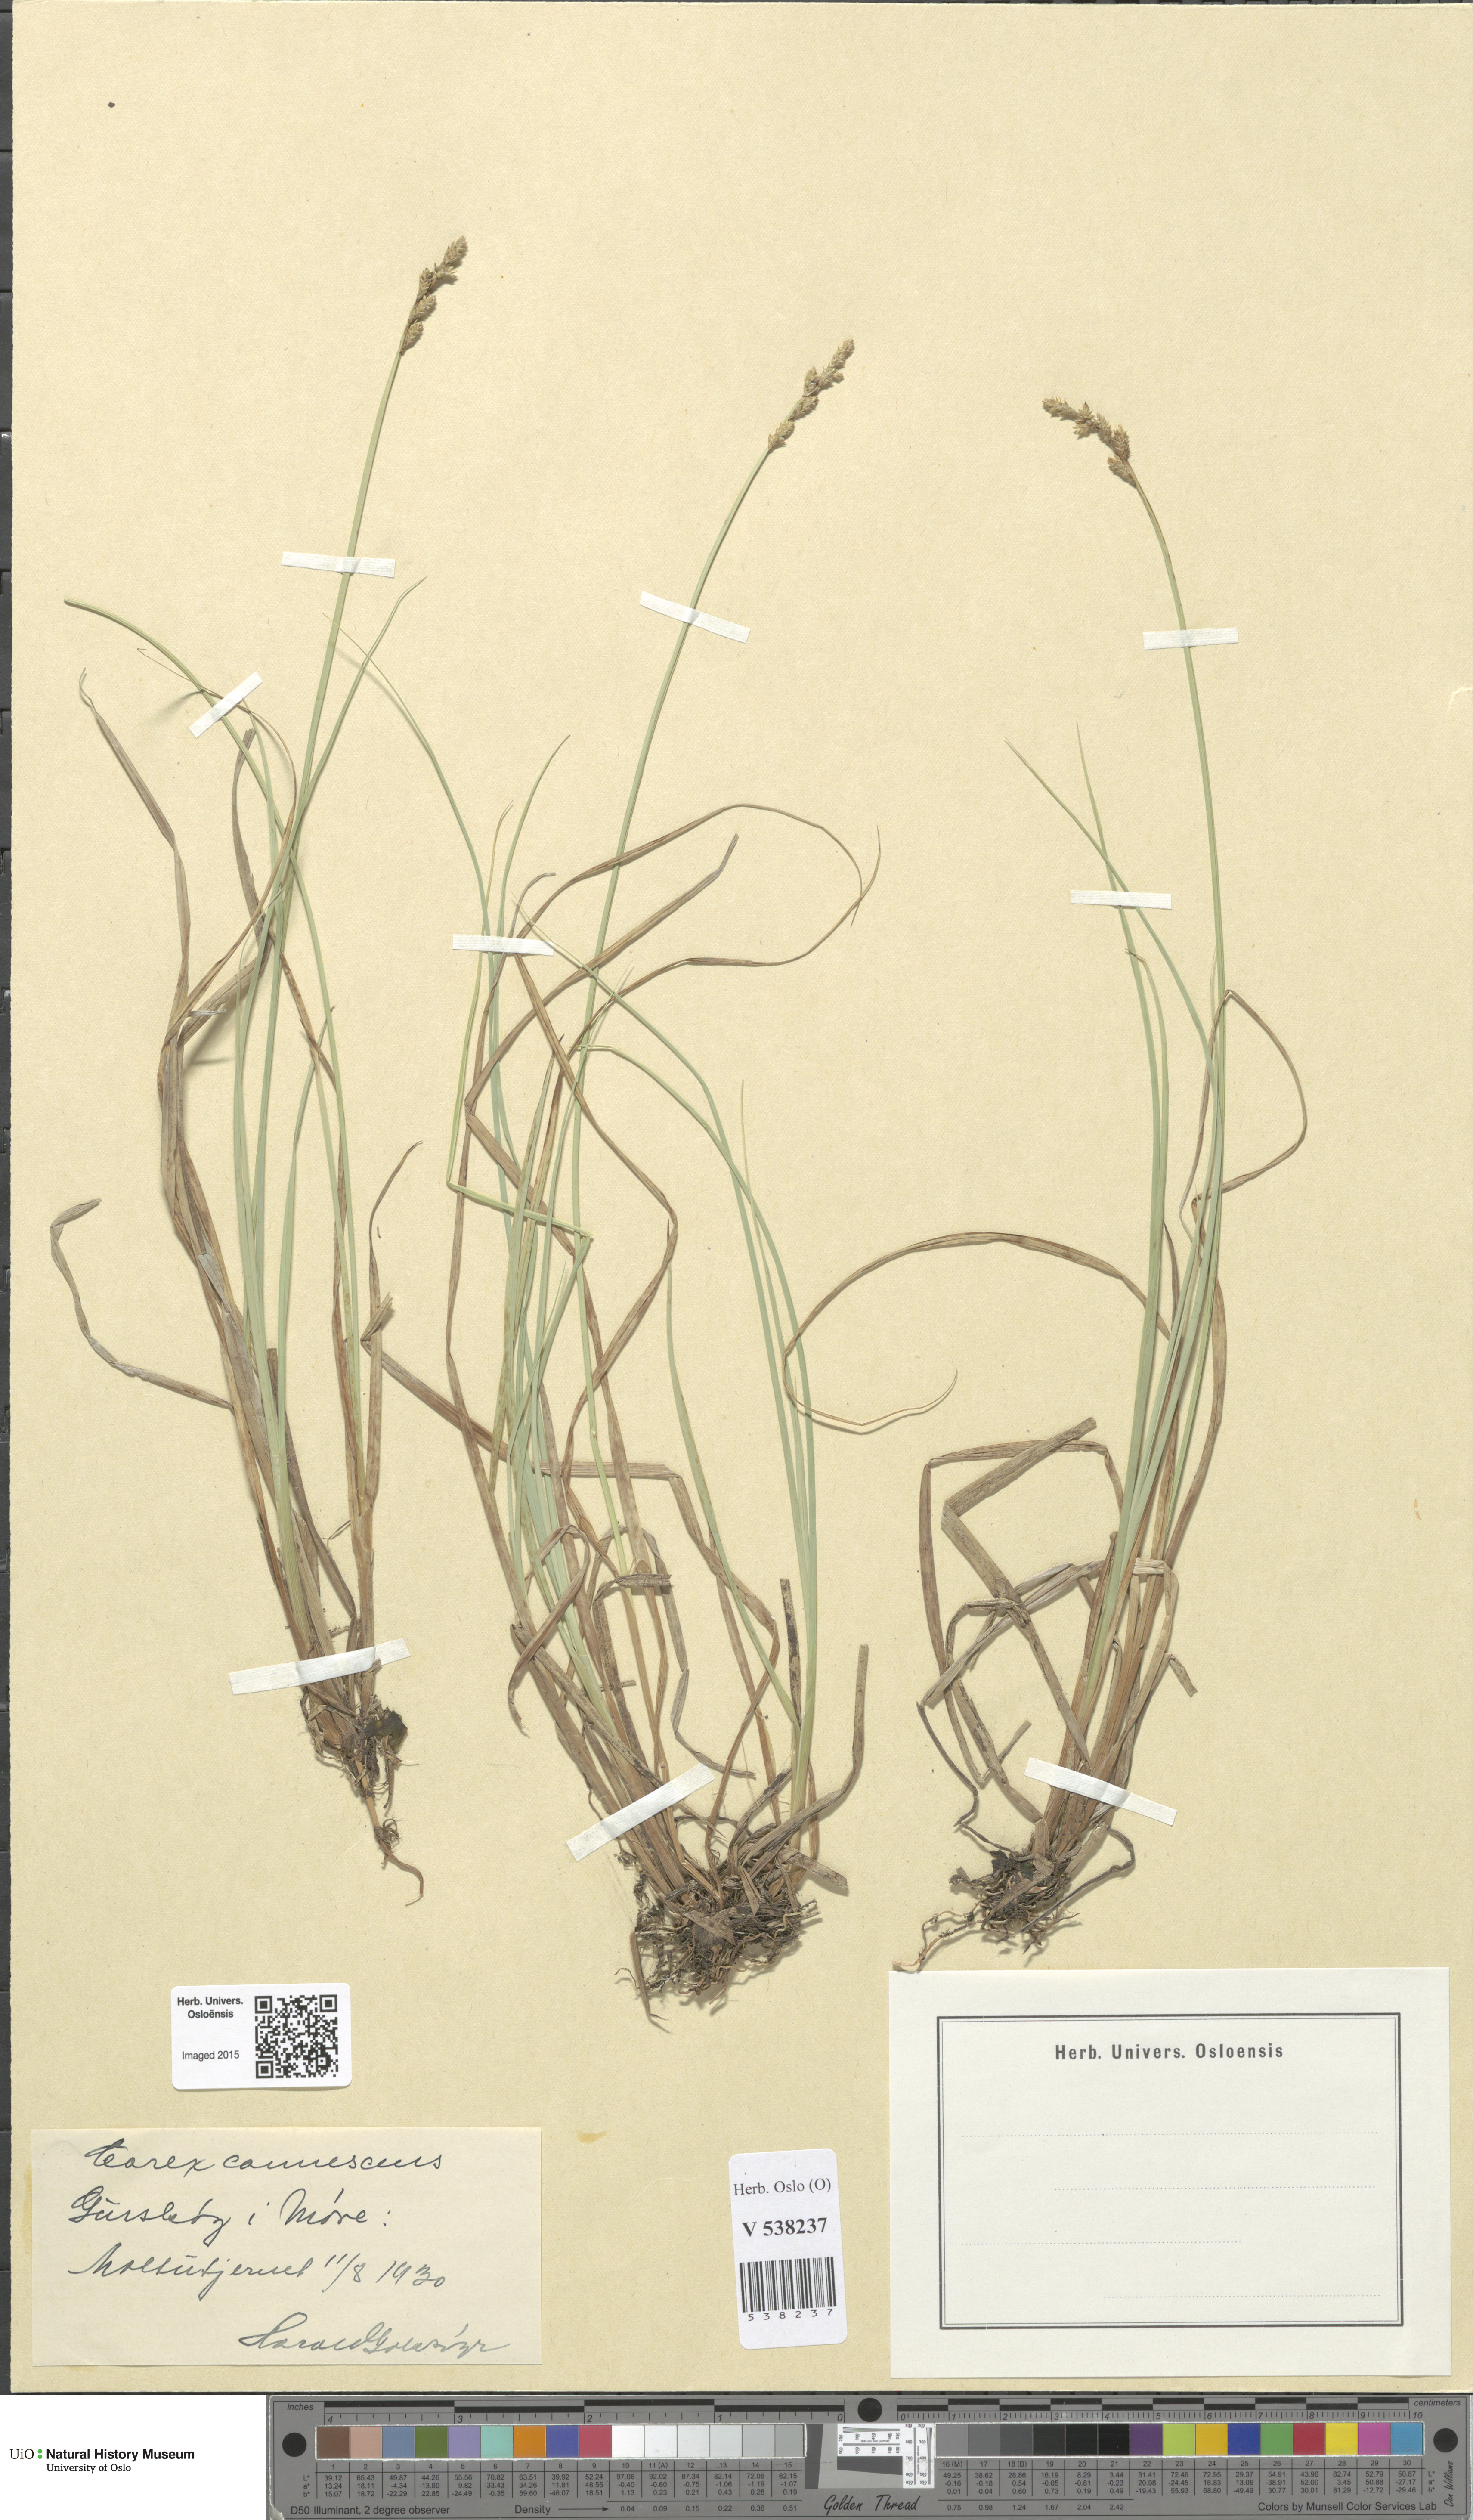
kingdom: Plantae
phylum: Tracheophyta
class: Liliopsida
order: Poales
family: Cyperaceae
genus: Carex
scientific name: Carex canescens
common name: White sedge
